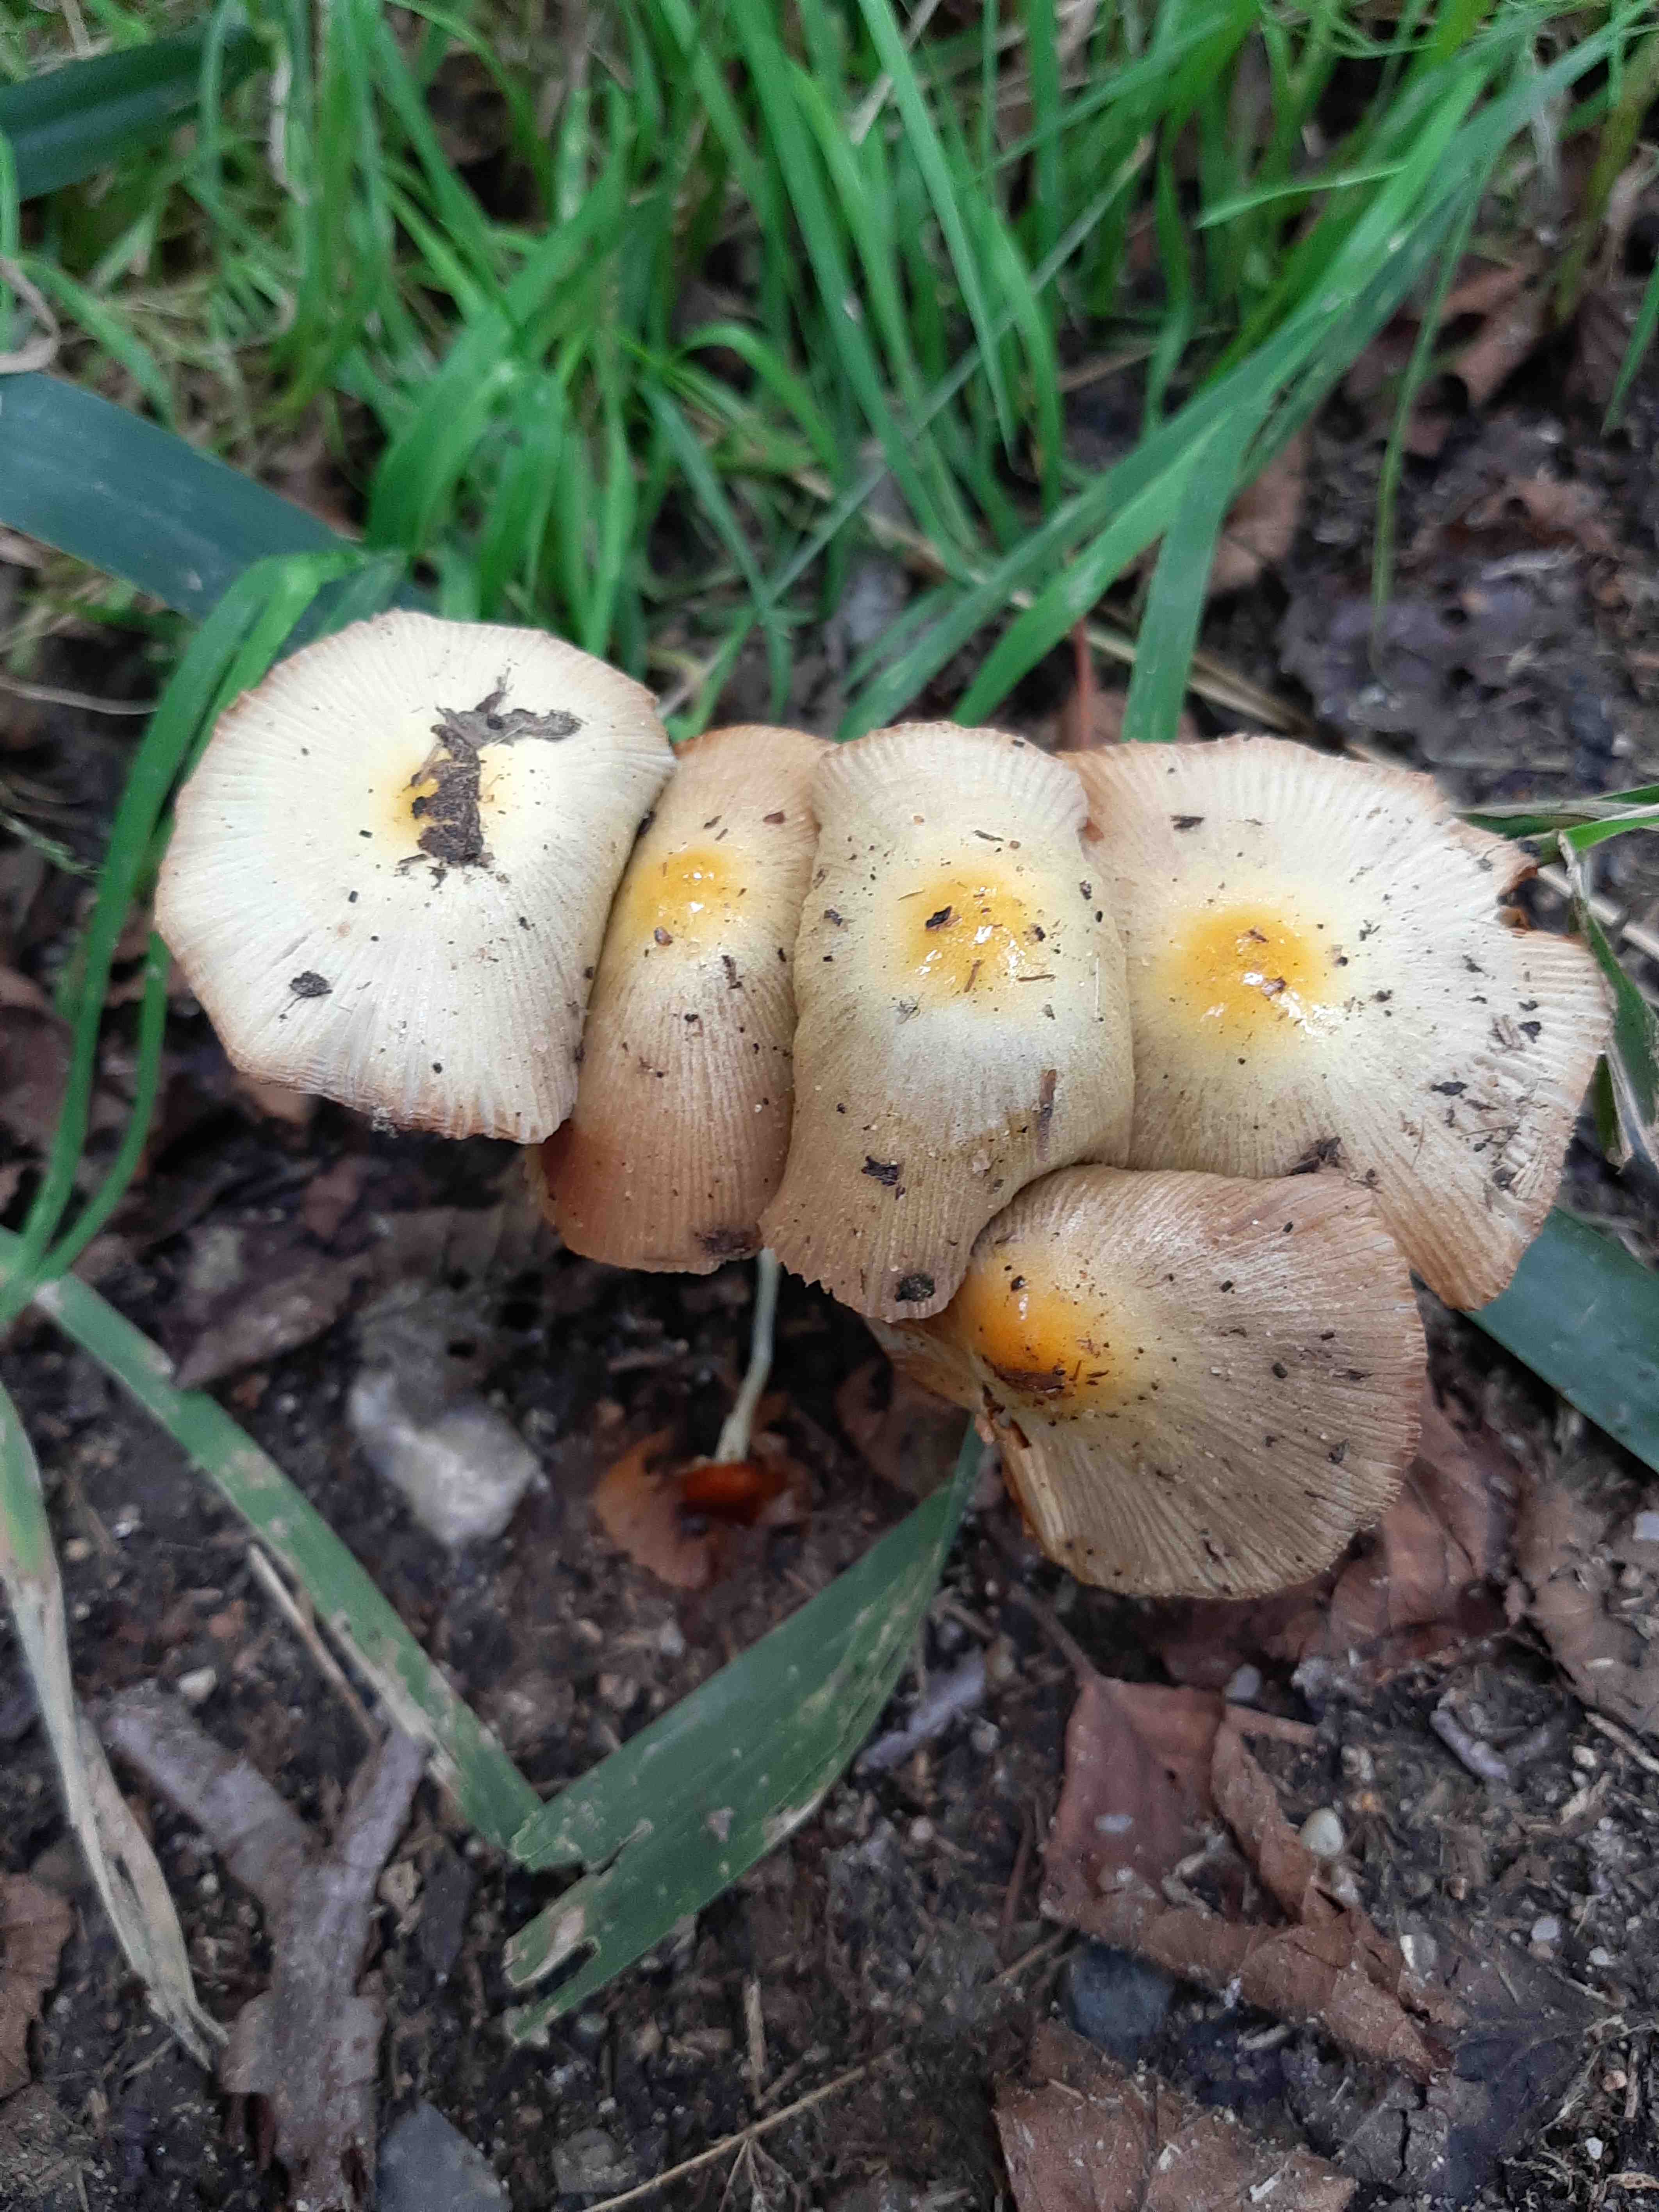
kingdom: Fungi
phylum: Basidiomycota
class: Agaricomycetes
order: Agaricales
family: Bolbitiaceae
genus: Bolbitius
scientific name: Bolbitius titubans
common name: almindelig gulhat
